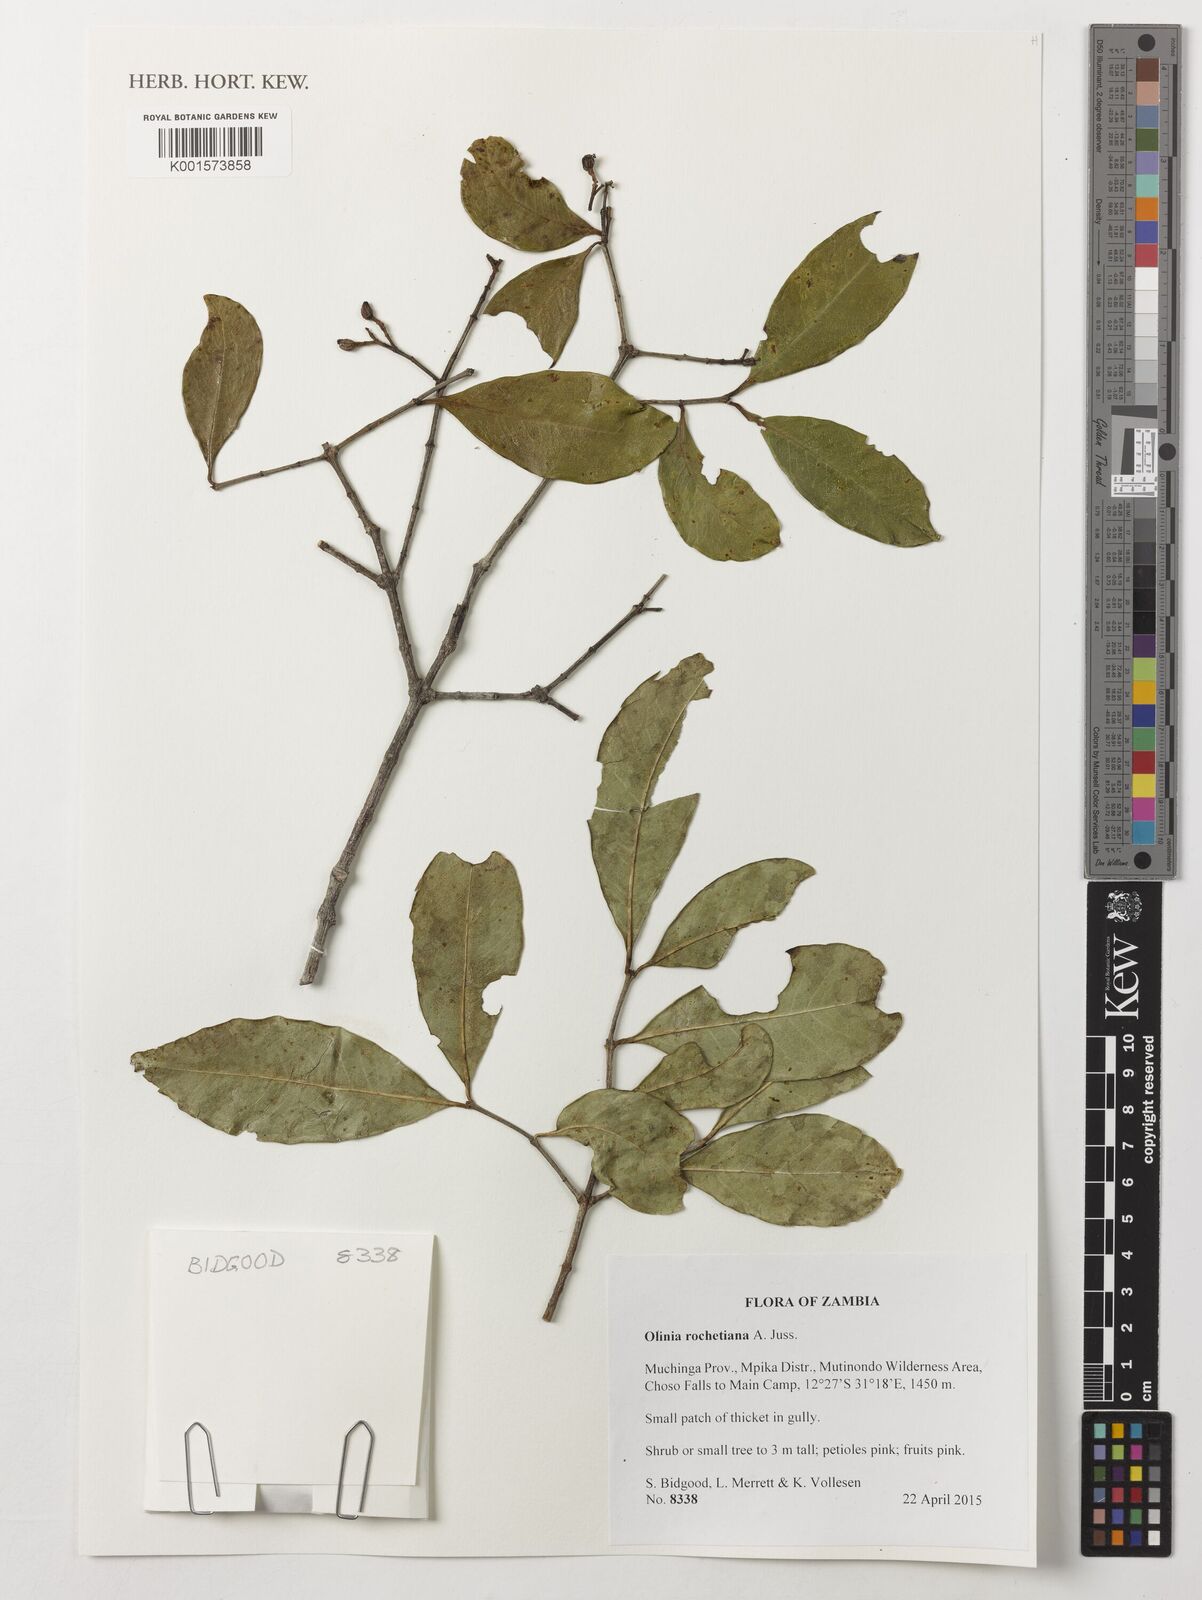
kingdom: Plantae
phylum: Tracheophyta
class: Magnoliopsida
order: Myrtales
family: Penaeaceae
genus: Olinia
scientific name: Olinia rochetiana
